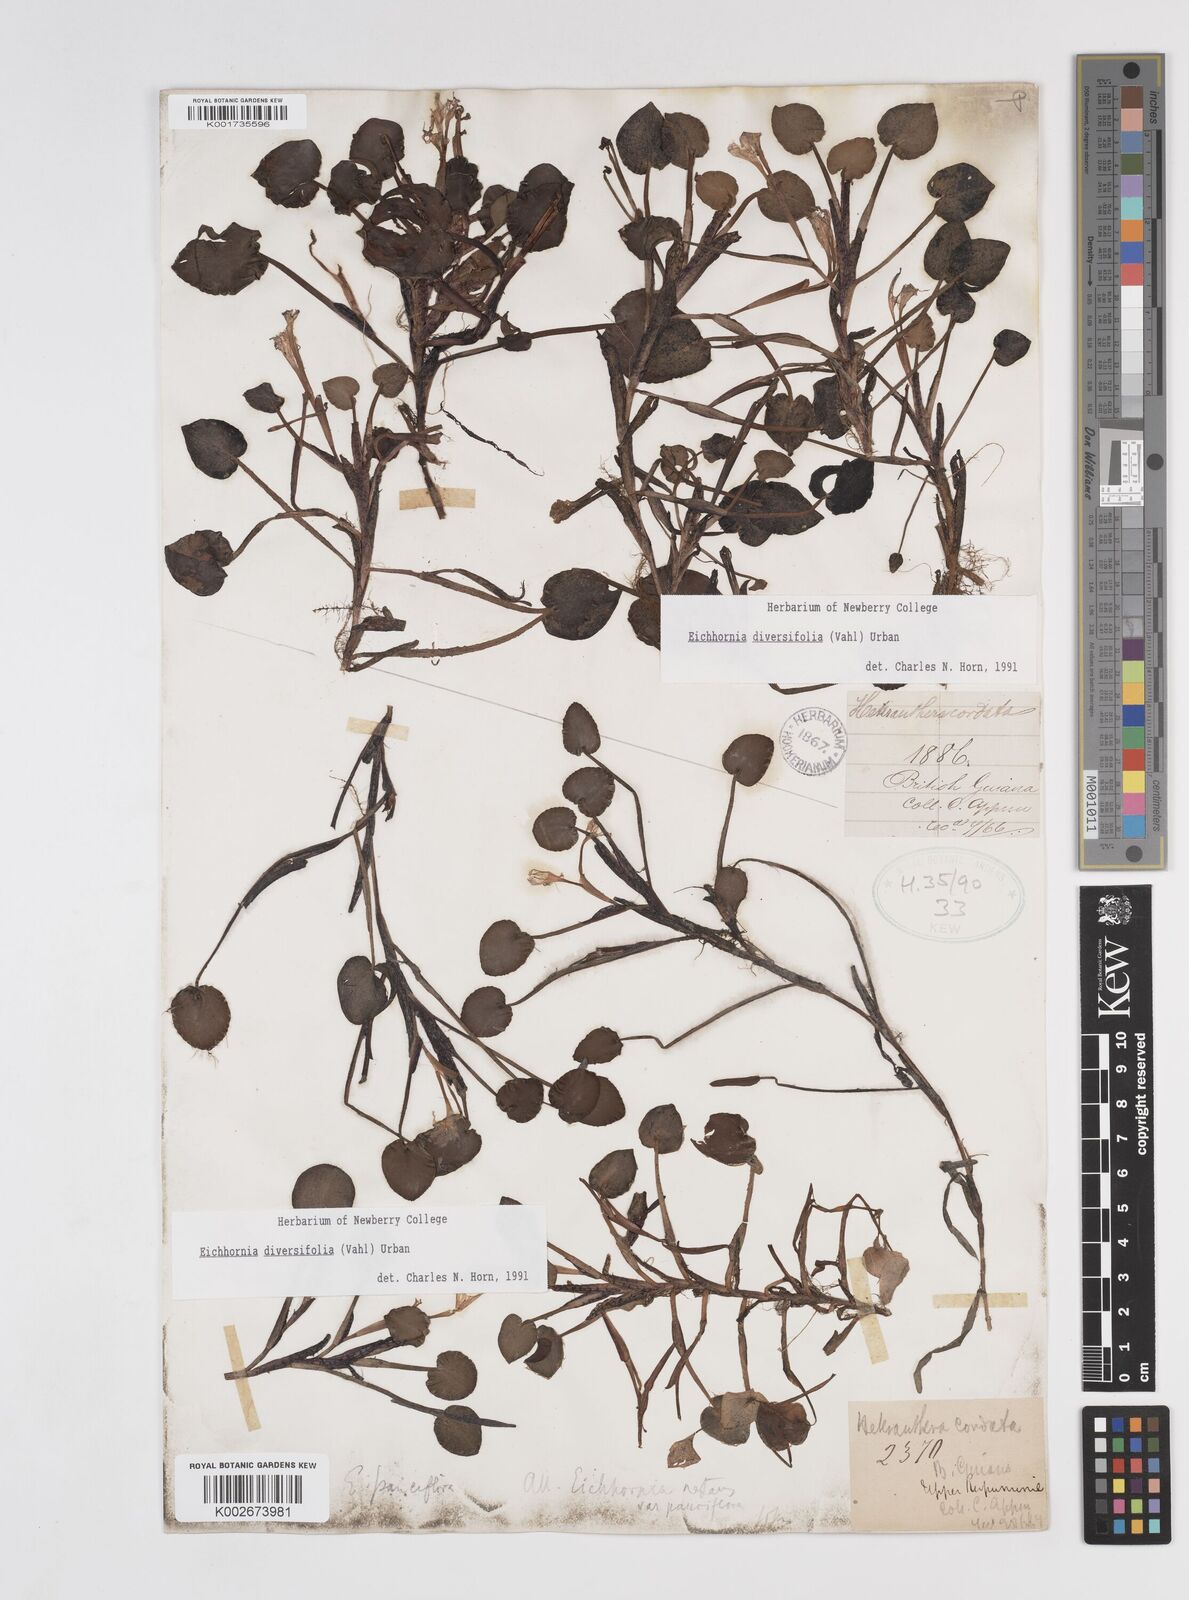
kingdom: Plantae
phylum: Tracheophyta
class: Liliopsida
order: Commelinales
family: Pontederiaceae
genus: Pontederia
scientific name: Pontederia diversifolia
